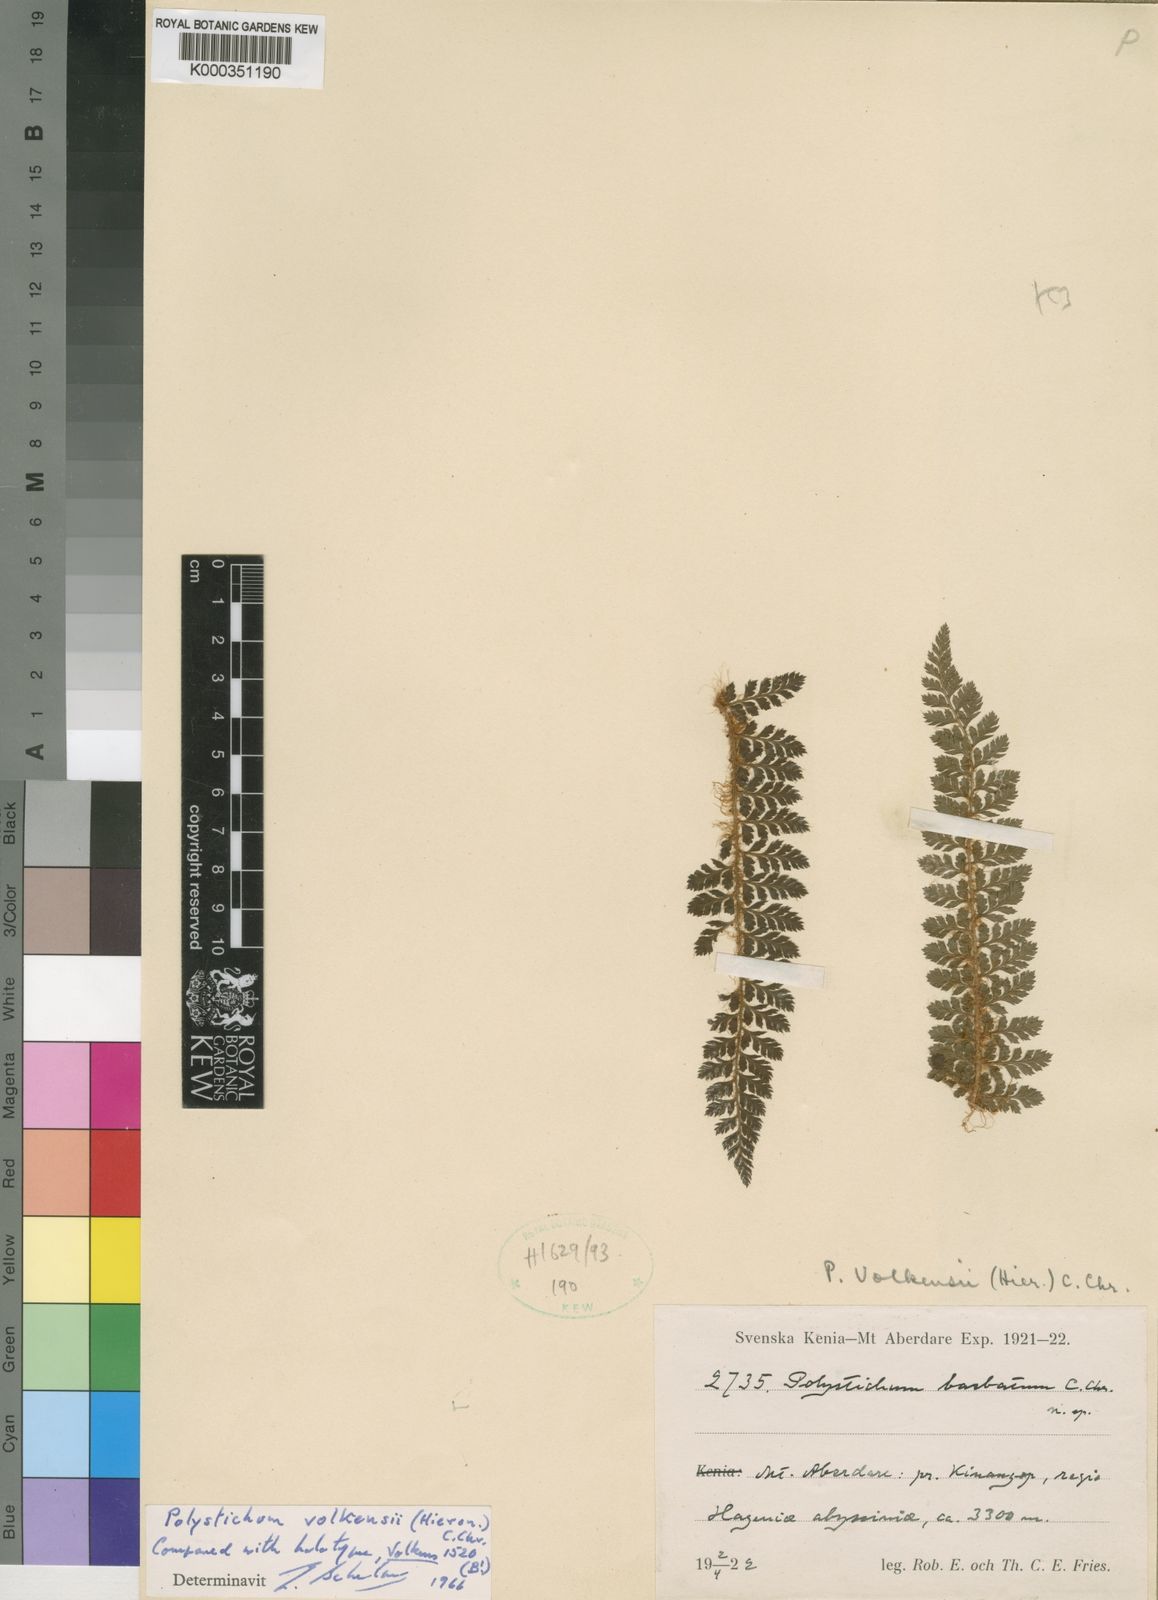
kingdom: Plantae
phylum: Tracheophyta
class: Polypodiopsida
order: Polypodiales
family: Dryopteridaceae
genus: Polystichum
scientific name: Polystichum volkensii
